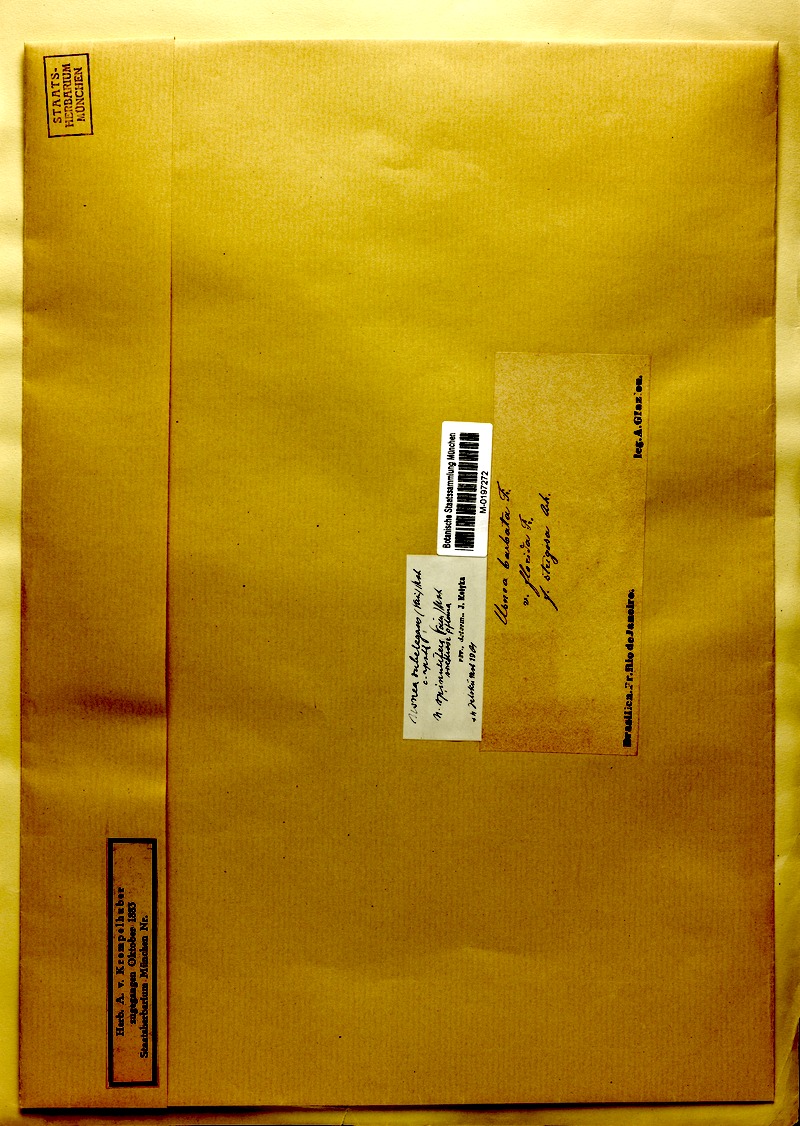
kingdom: Fungi
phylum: Ascomycota
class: Lecanoromycetes
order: Lecanorales
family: Parmeliaceae
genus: Usnea
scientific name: Usnea cornuta
